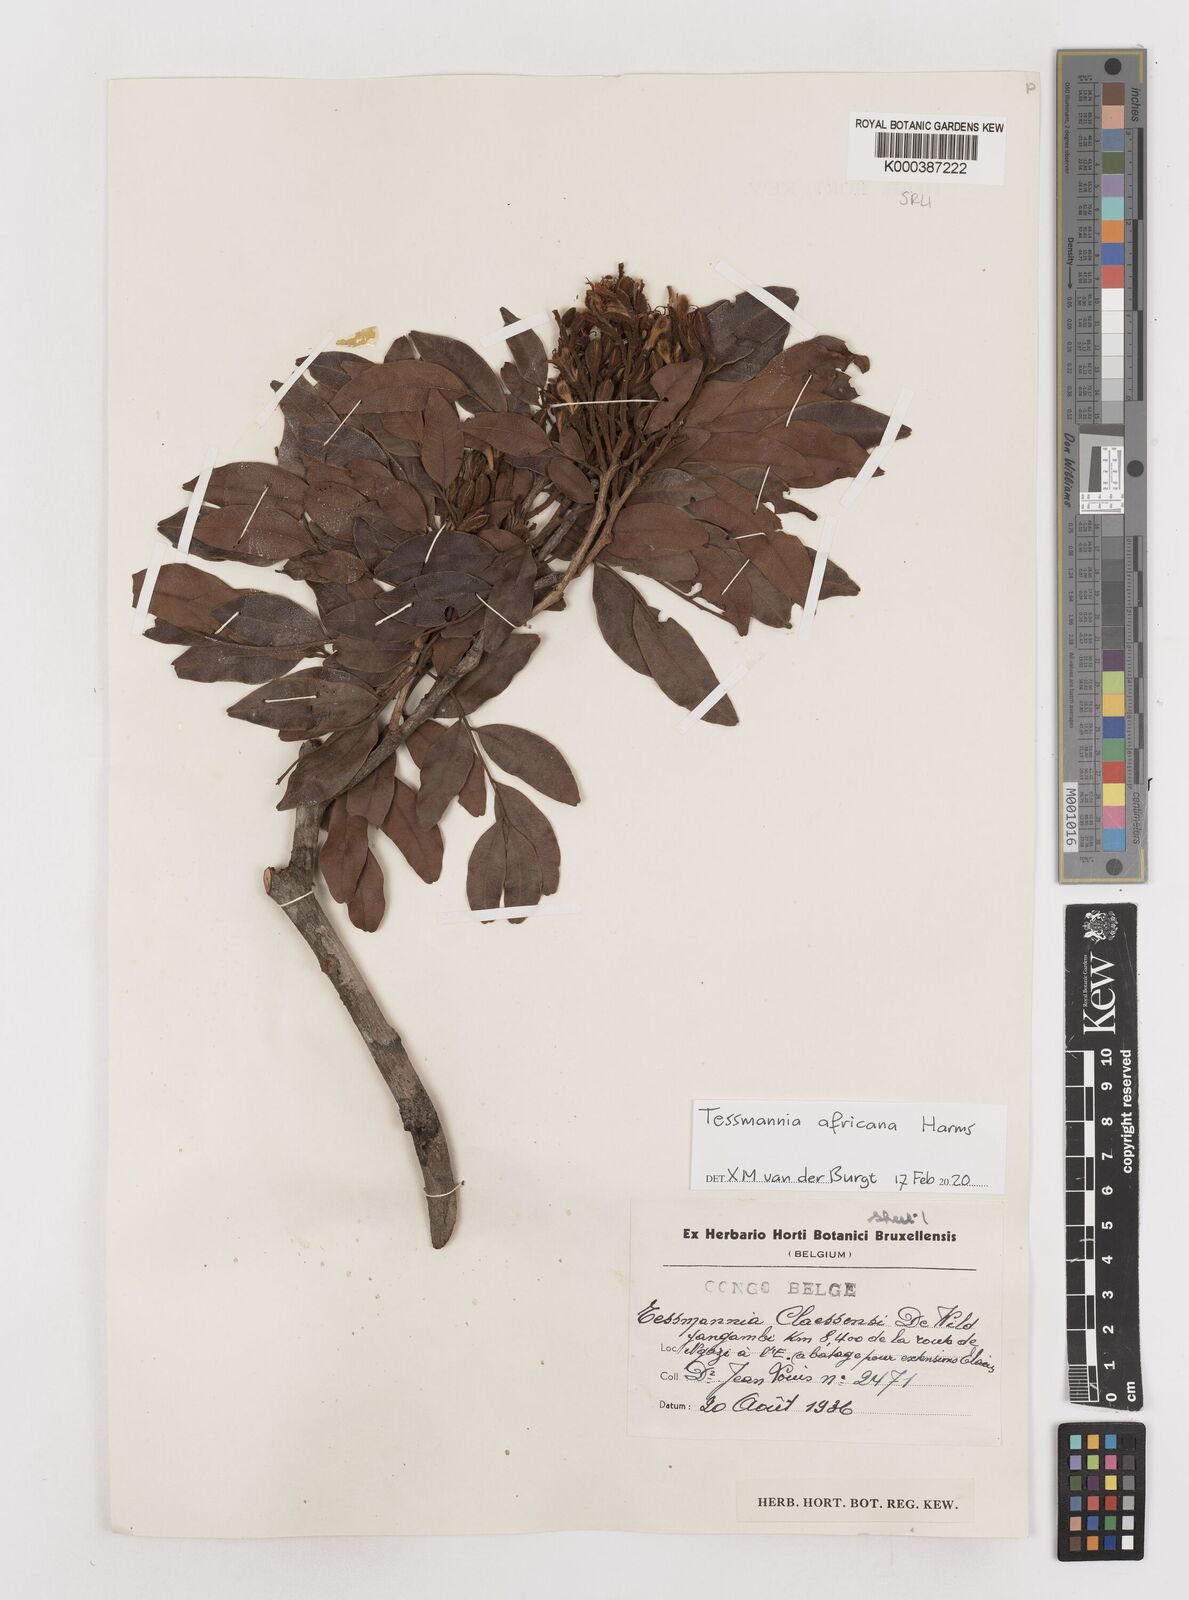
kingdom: Plantae
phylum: Tracheophyta
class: Magnoliopsida
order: Fabales
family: Fabaceae
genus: Tessmannia
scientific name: Tessmannia africana
